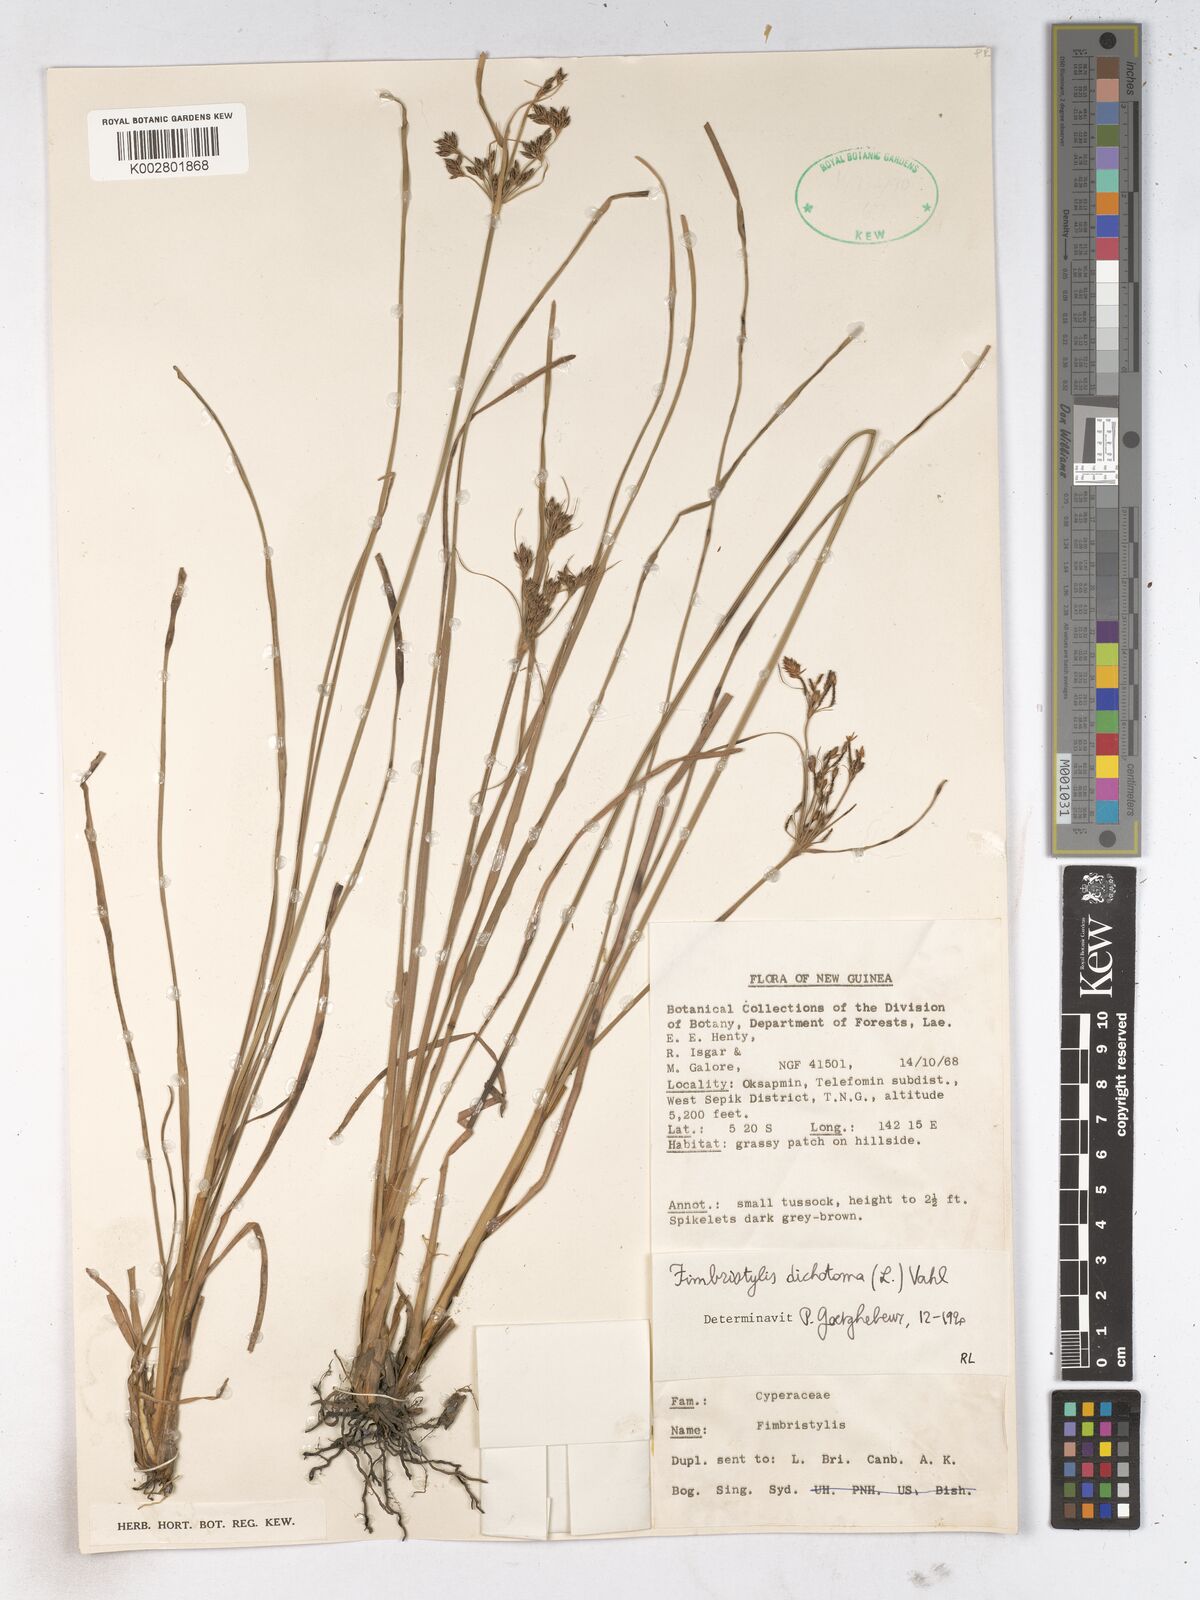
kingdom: Plantae
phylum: Tracheophyta
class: Liliopsida
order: Poales
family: Cyperaceae
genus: Fimbristylis
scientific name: Fimbristylis dichotoma
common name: Forked fimbry
